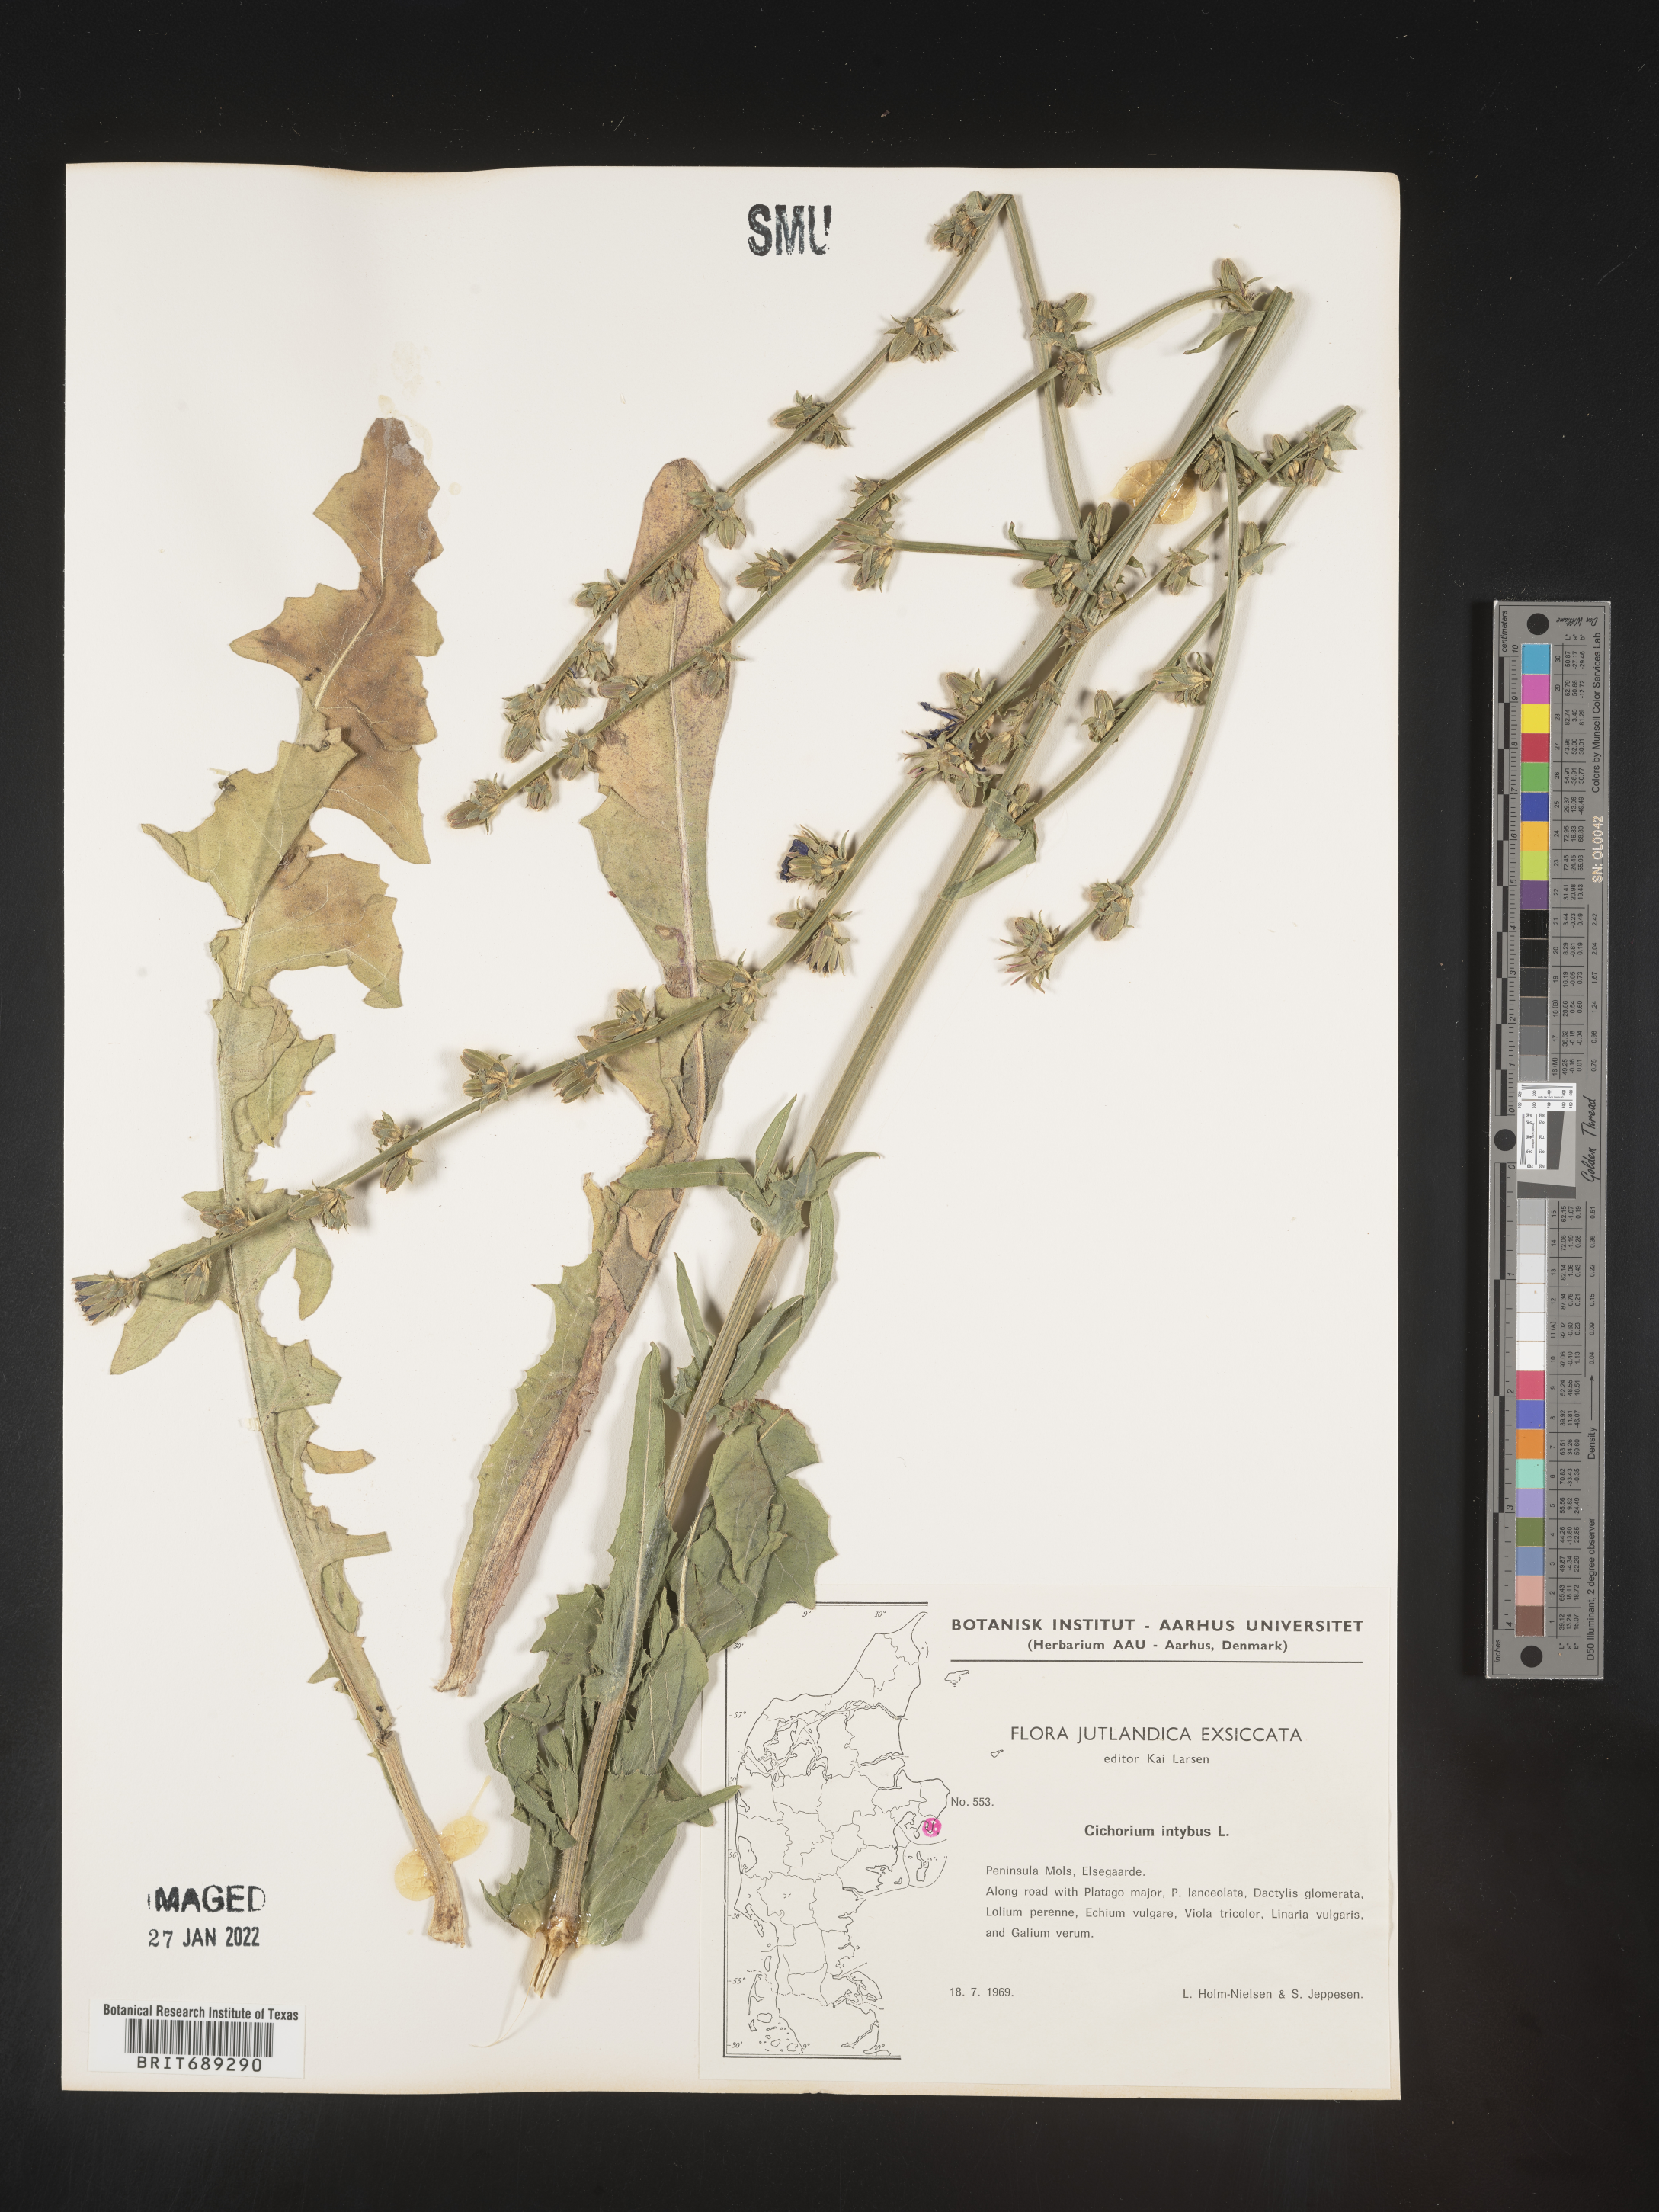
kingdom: Plantae
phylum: Tracheophyta
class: Magnoliopsida
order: Asterales
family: Asteraceae
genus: Cichorium
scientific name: Cichorium
